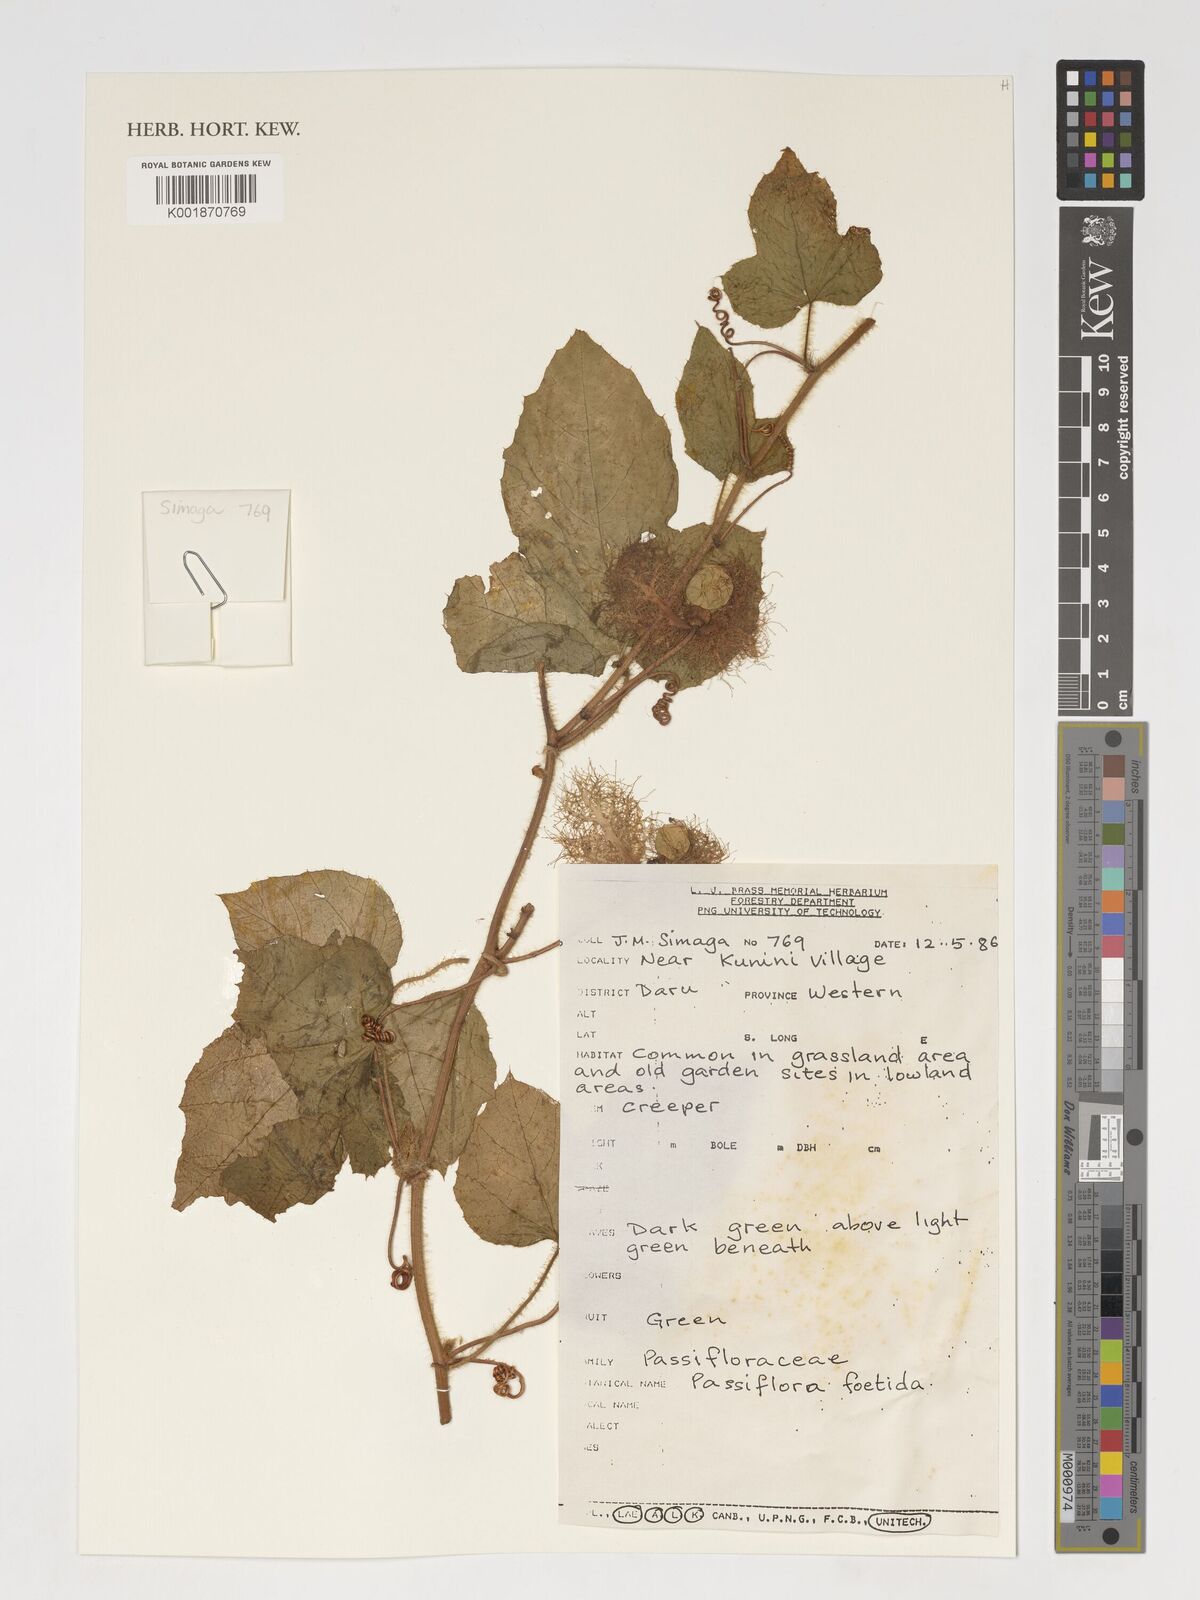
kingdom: Plantae
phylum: Tracheophyta
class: Magnoliopsida
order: Malpighiales
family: Passifloraceae
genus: Passiflora
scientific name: Passiflora foetida
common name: Fetid passionflower
